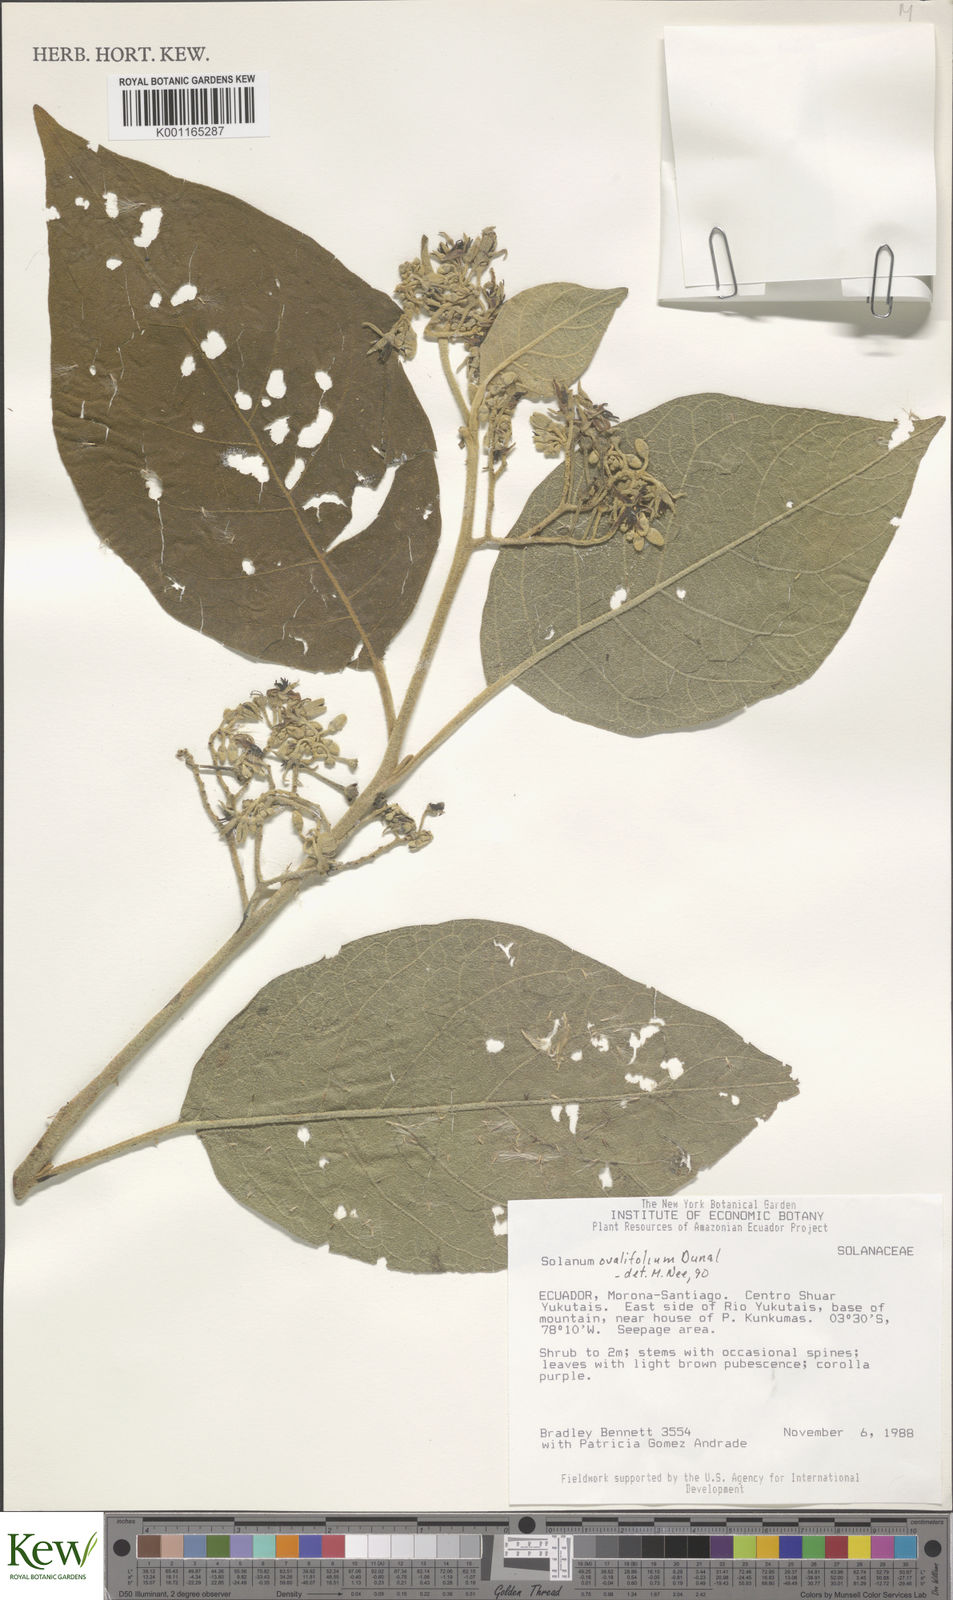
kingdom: Plantae
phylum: Tracheophyta
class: Magnoliopsida
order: Solanales
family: Solanaceae
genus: Solanum
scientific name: Solanum ovalifolium
